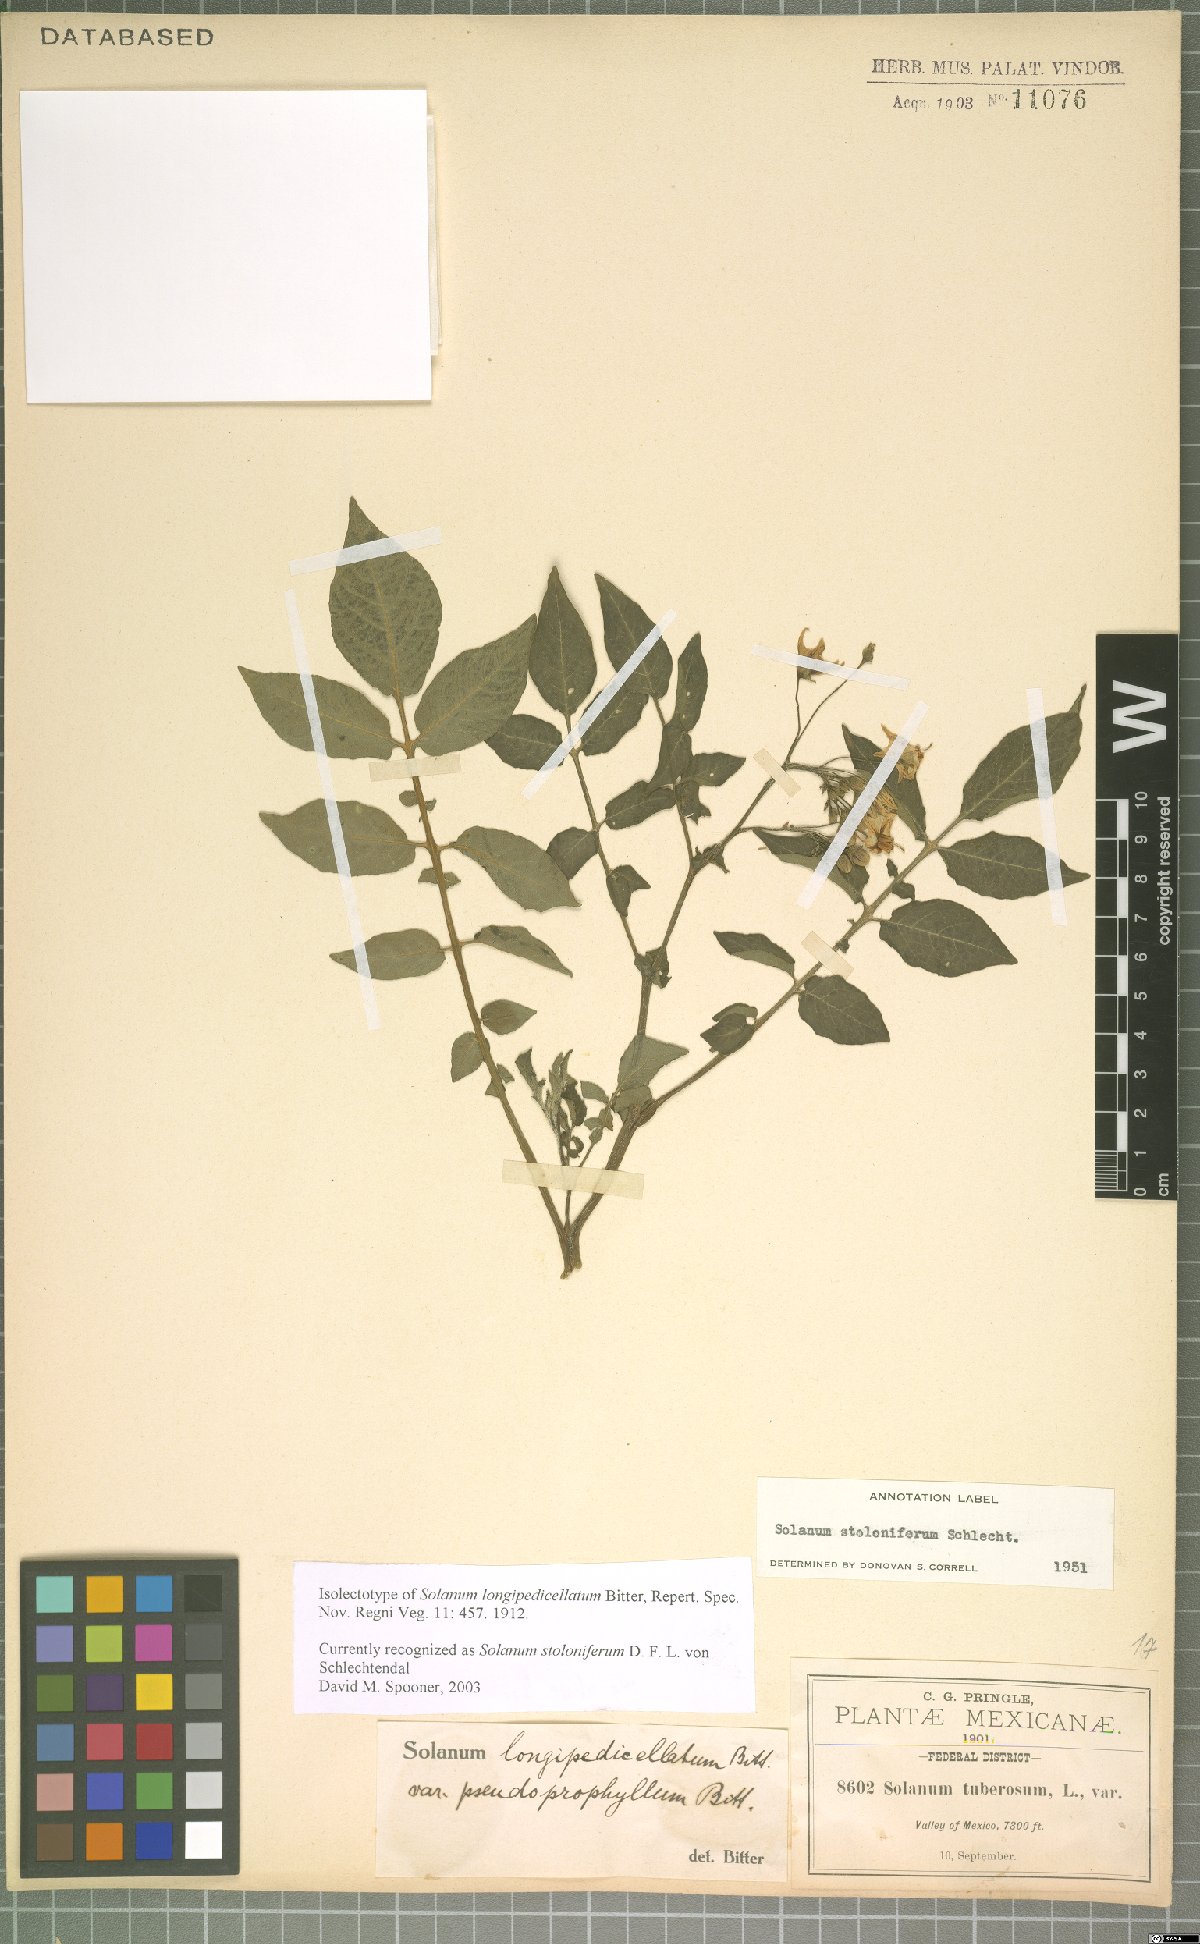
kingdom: Plantae
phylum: Tracheophyta
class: Magnoliopsida
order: Solanales
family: Solanaceae
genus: Solanum
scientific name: Solanum stoloniferum
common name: Fendler's nighshade
